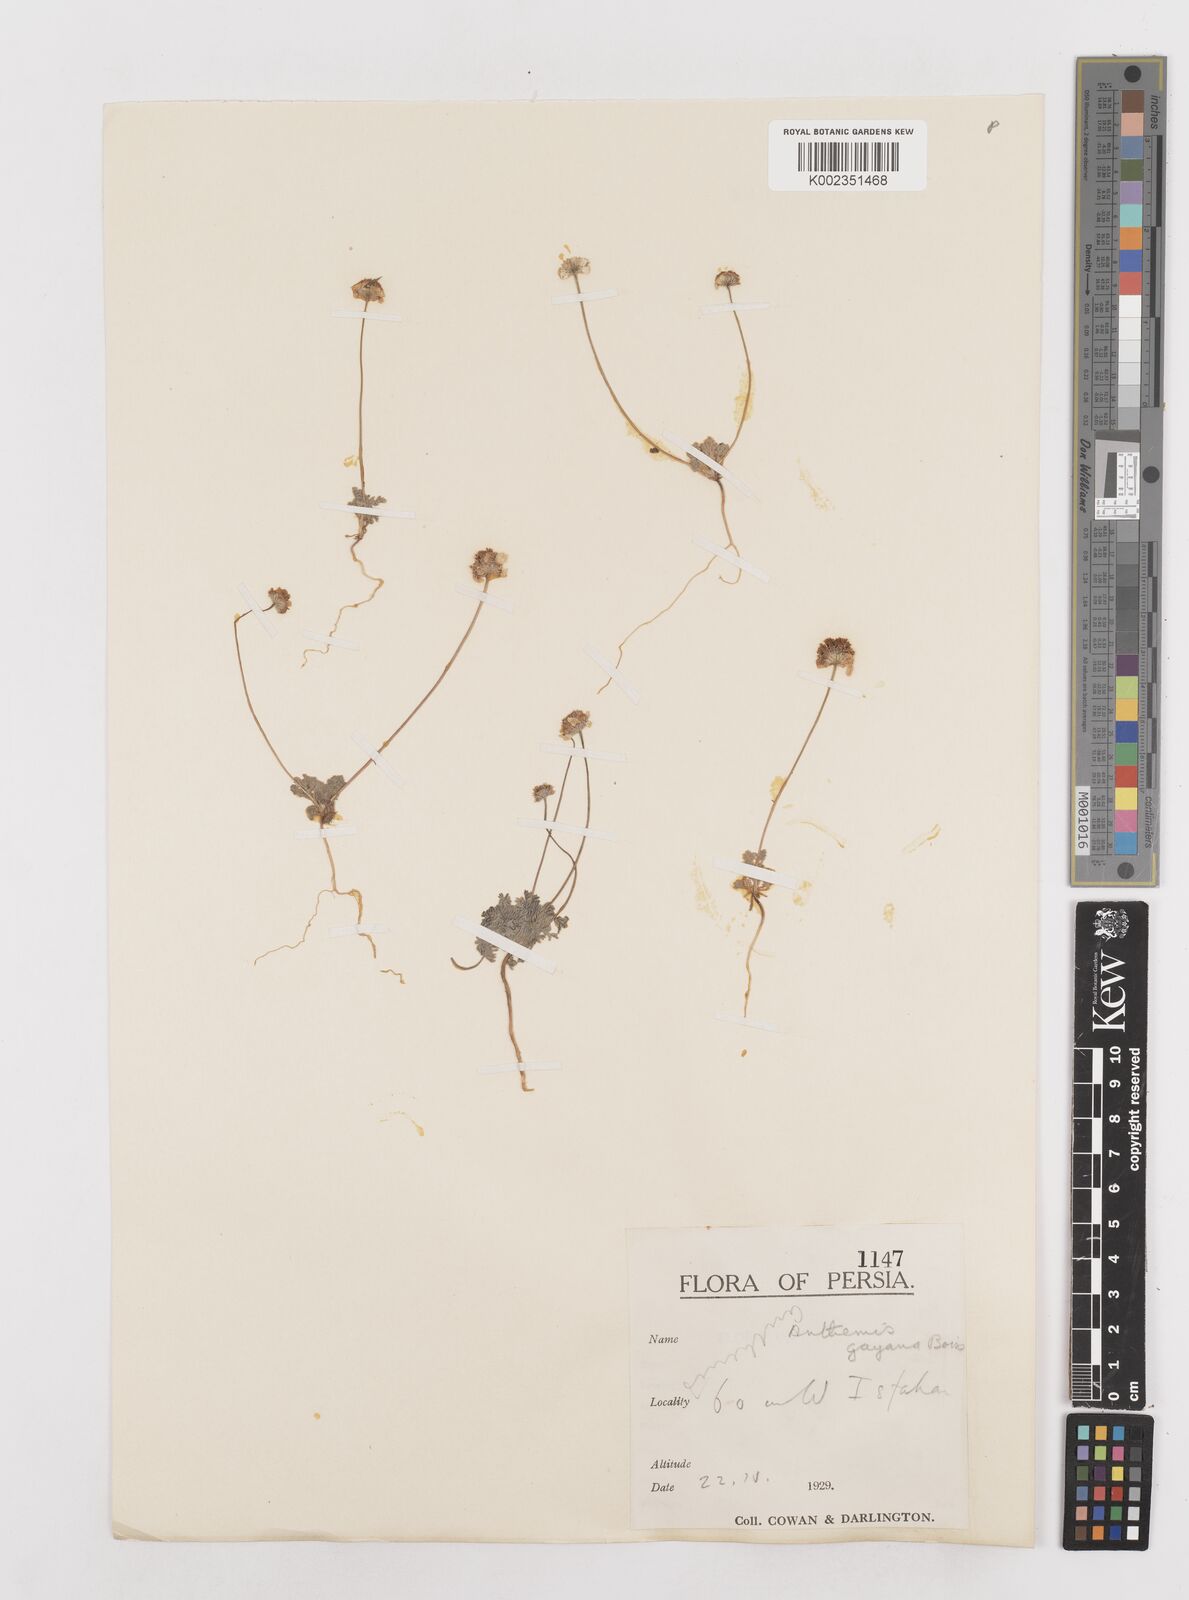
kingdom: Plantae
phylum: Tracheophyta
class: Magnoliopsida
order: Asterales
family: Asteraceae
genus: Anthemis
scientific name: Anthemis gayana
